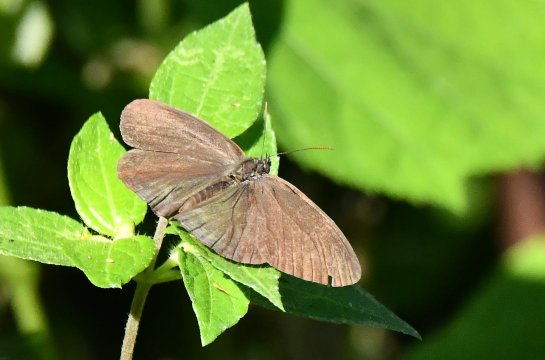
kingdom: Animalia
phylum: Arthropoda
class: Insecta
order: Lepidoptera
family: Nymphalidae
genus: Hermeuptychia
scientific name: Hermeuptychia intricata
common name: Intricate Satyr
